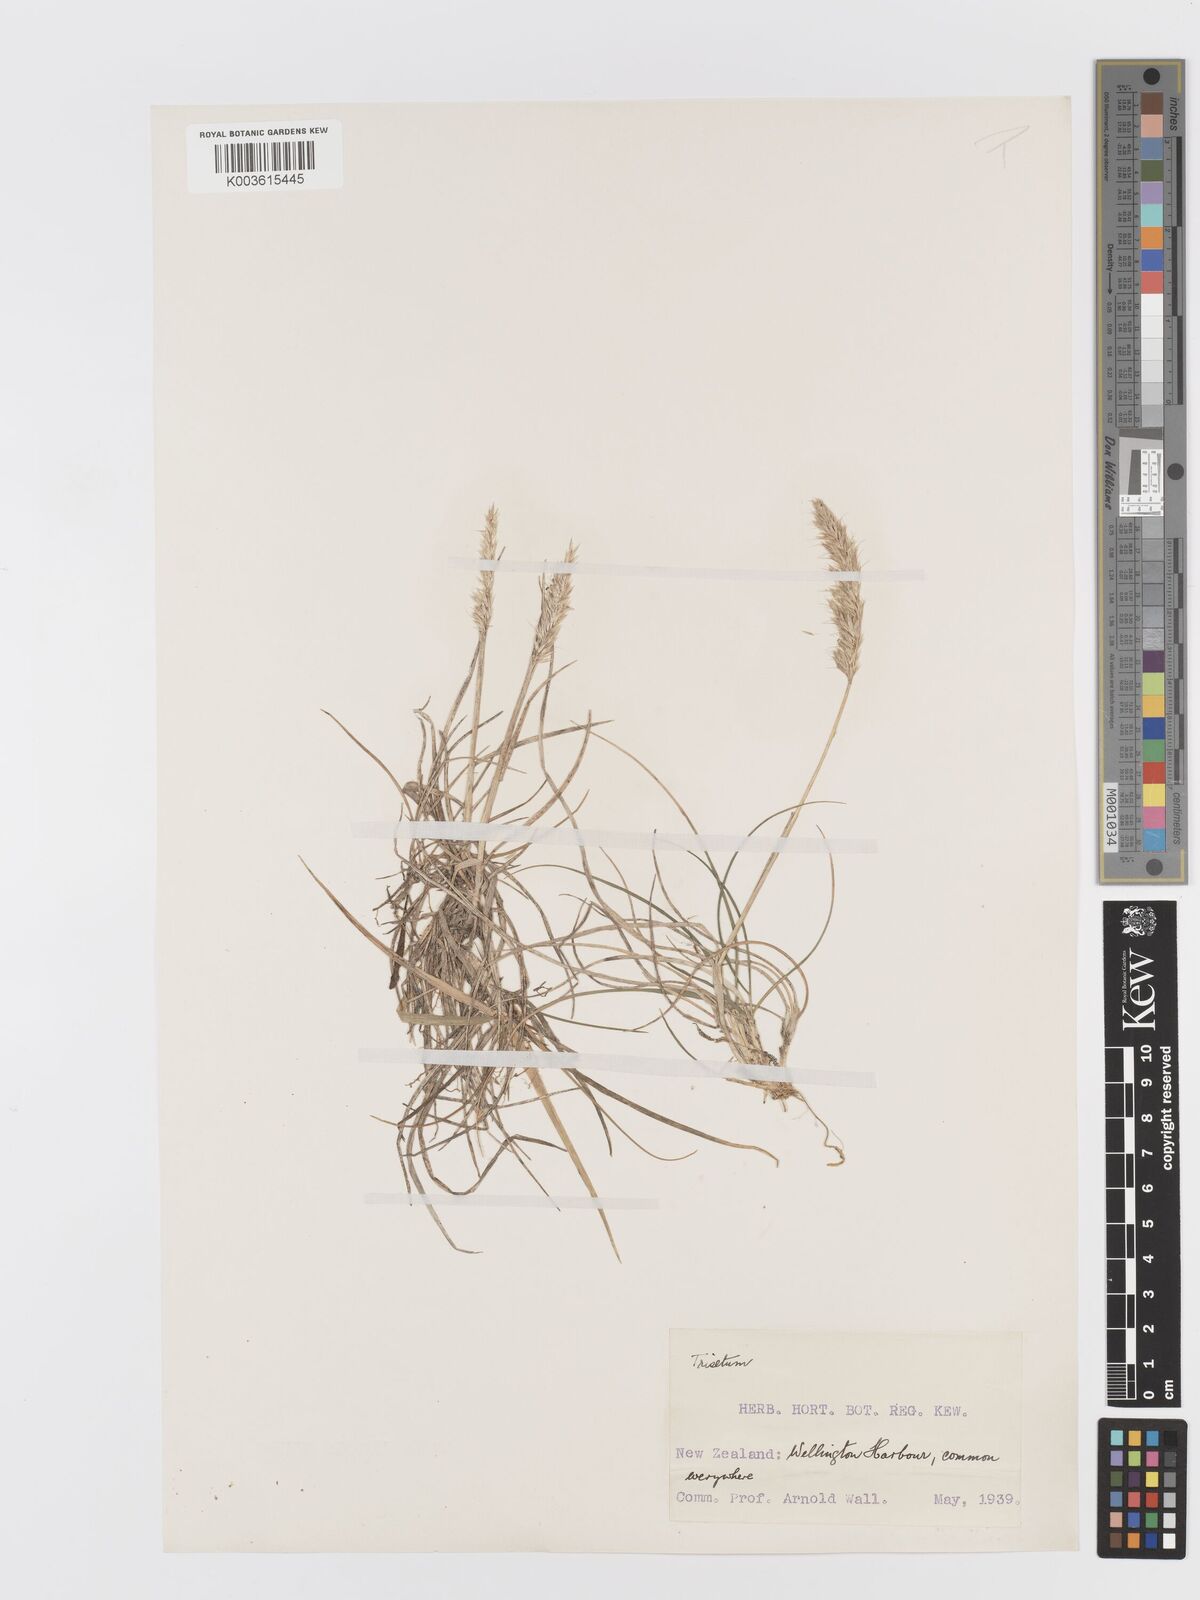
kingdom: Plantae
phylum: Tracheophyta
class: Liliopsida
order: Poales
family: Poaceae
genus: Trisetum
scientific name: Trisetum
